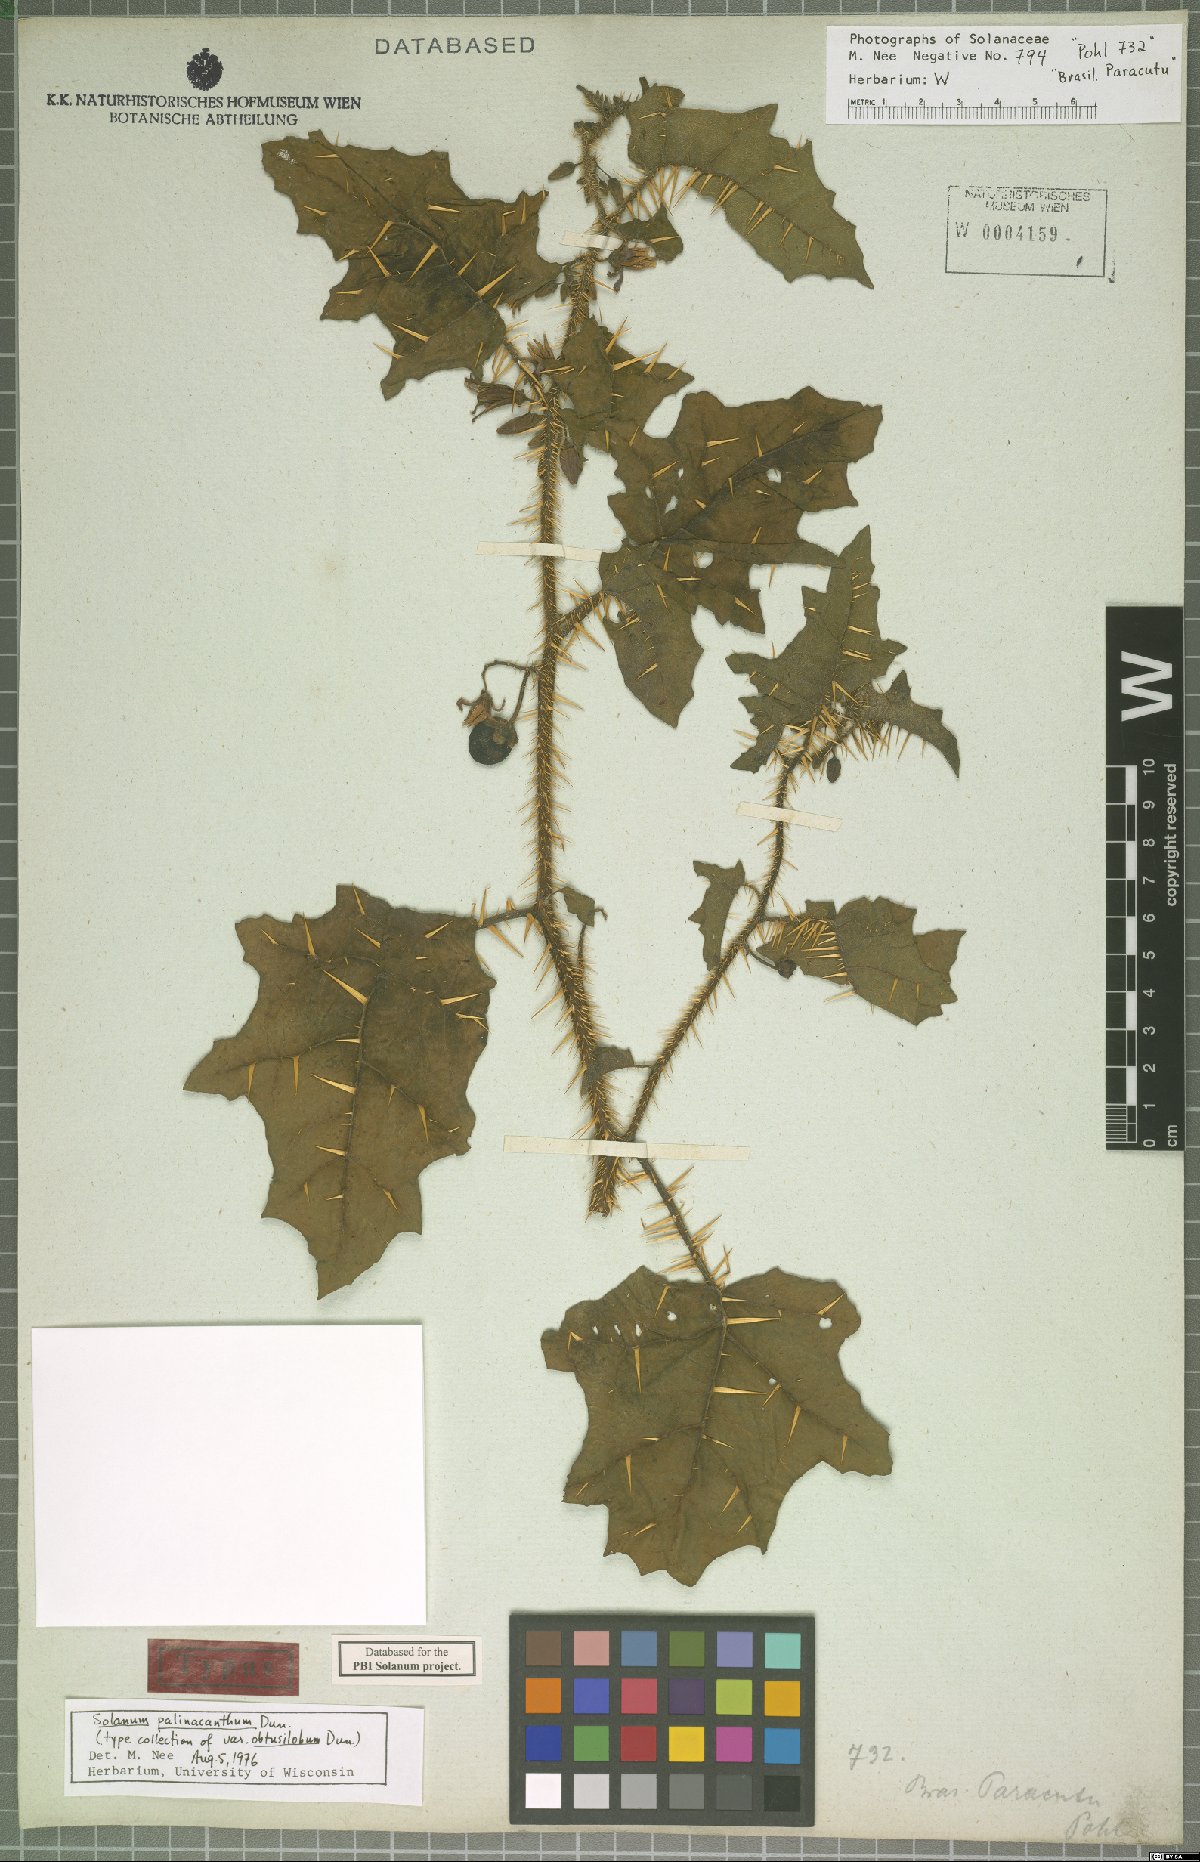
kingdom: Plantae
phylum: Tracheophyta
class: Magnoliopsida
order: Solanales
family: Solanaceae
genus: Solanum
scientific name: Solanum palinacanthum
